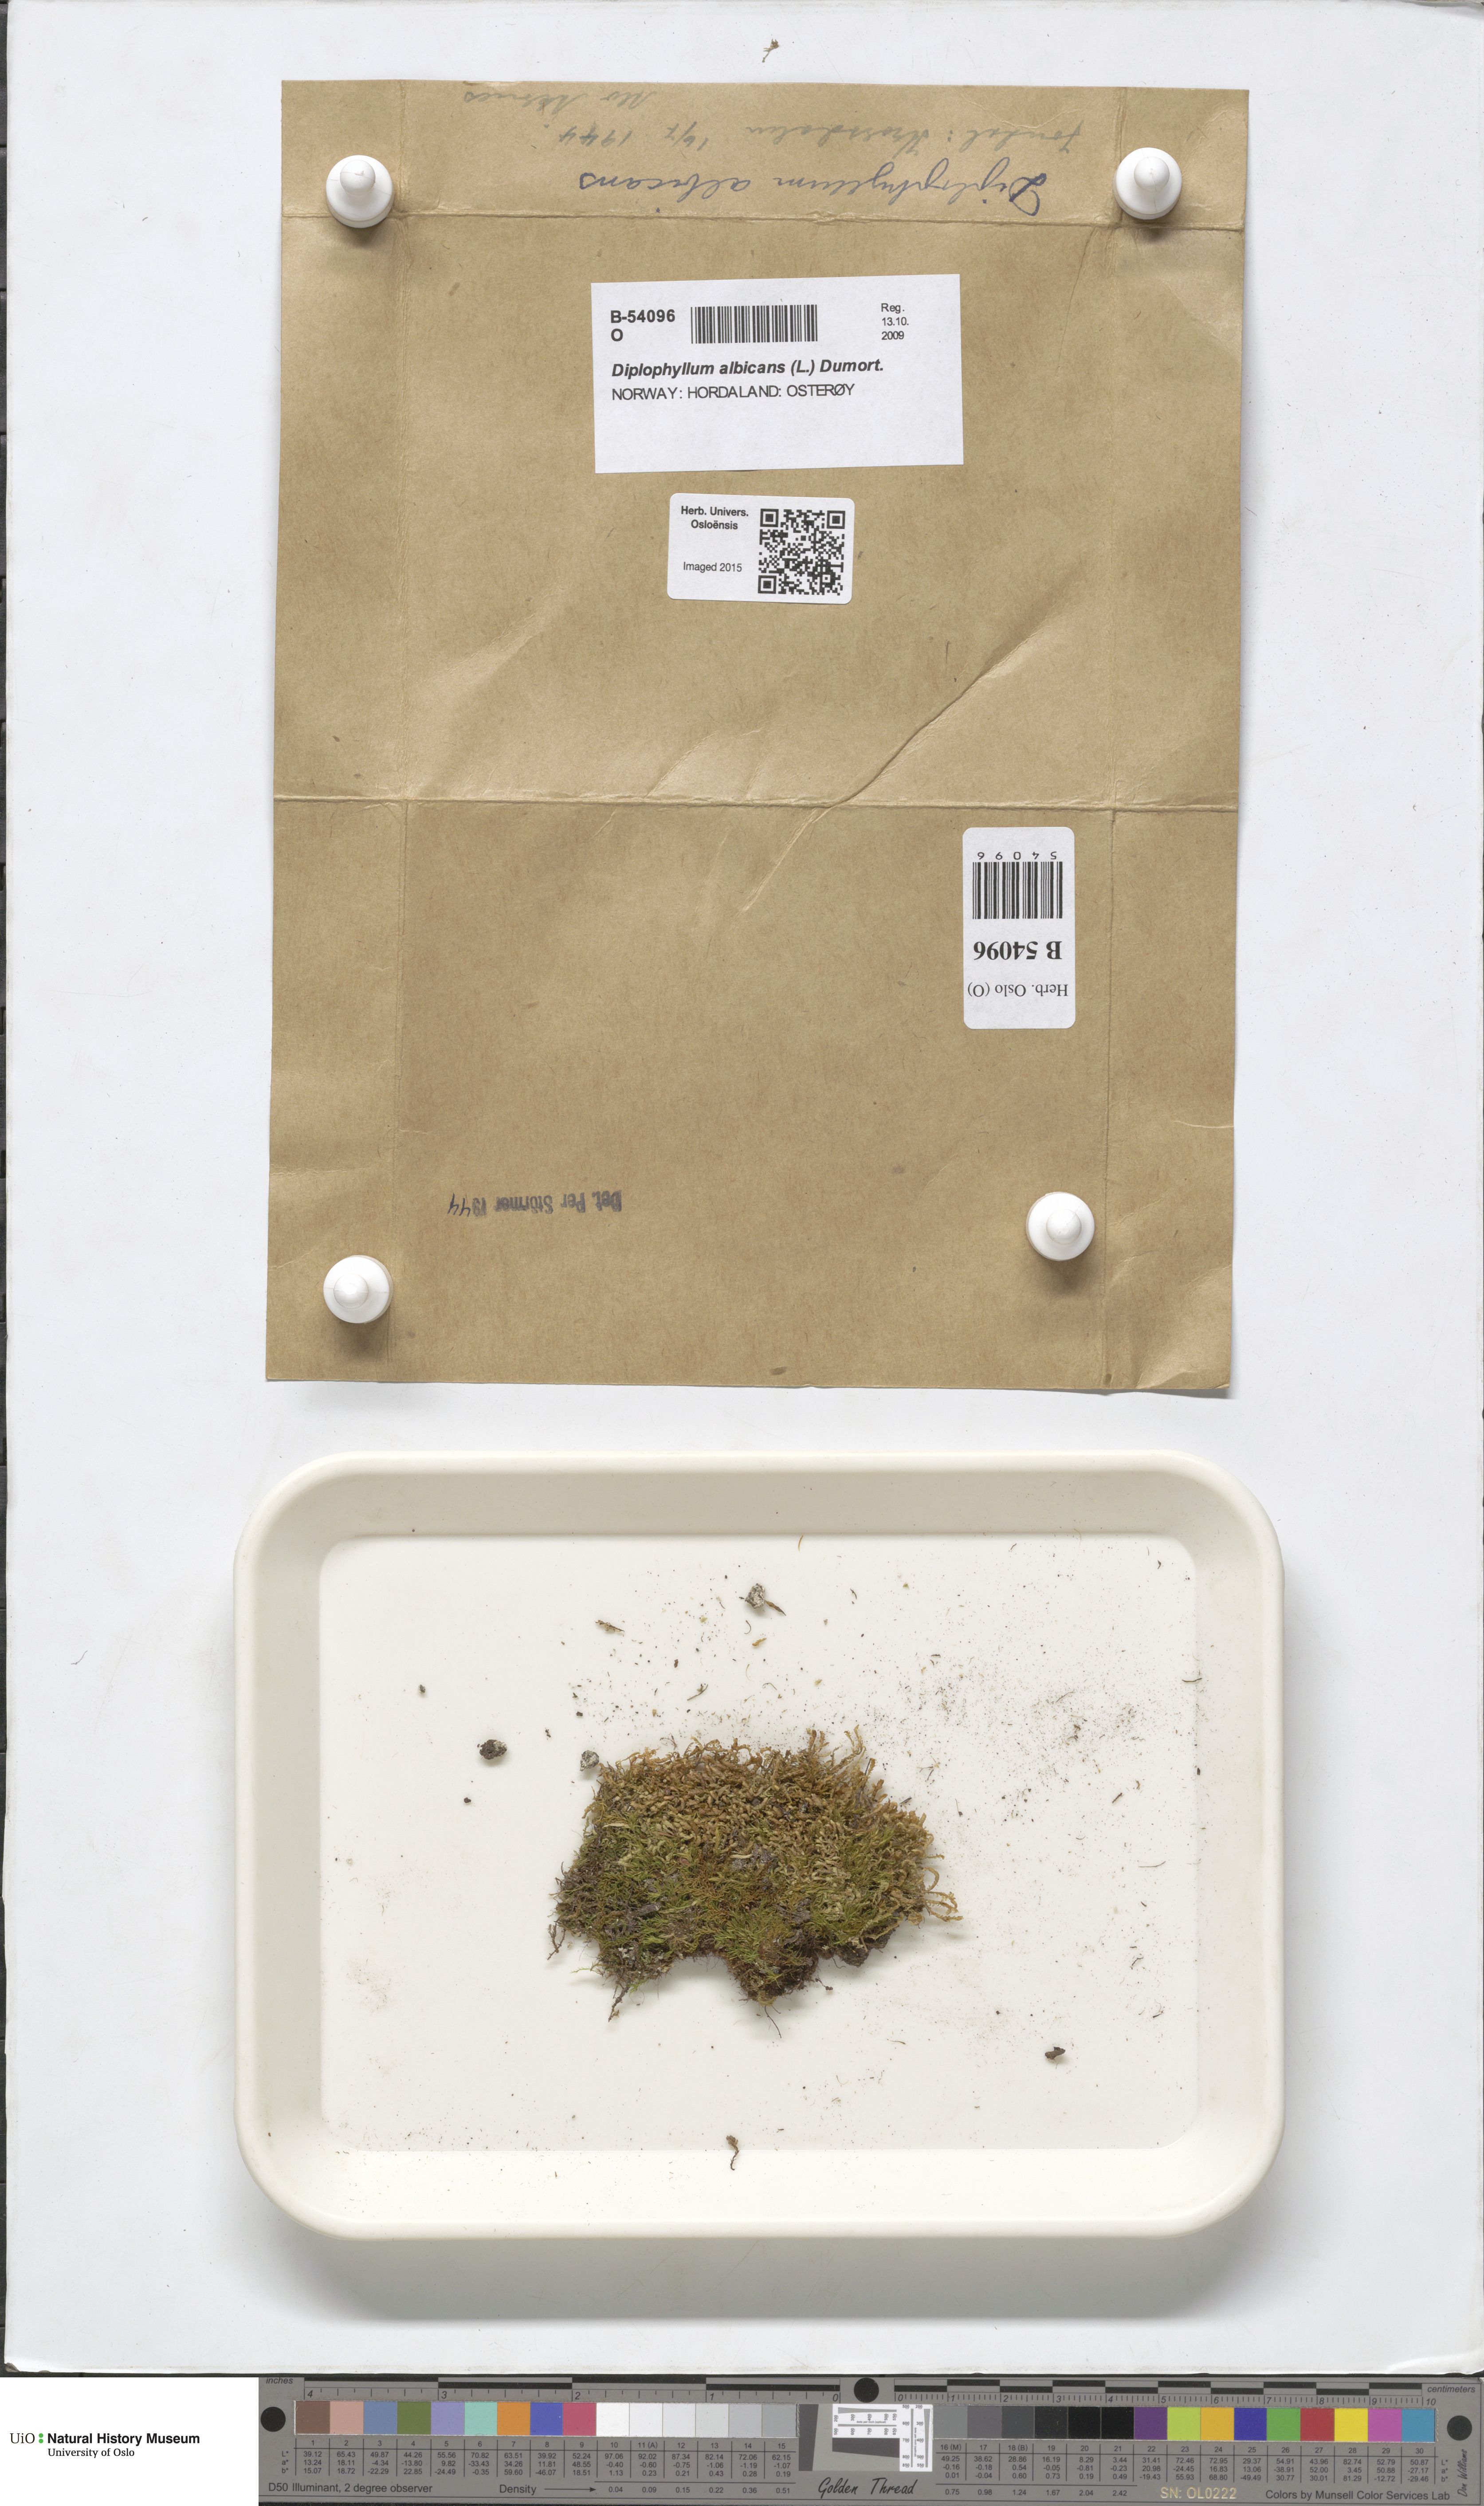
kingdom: Plantae
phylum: Marchantiophyta
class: Jungermanniopsida
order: Jungermanniales
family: Scapaniaceae
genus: Diplophyllum
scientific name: Diplophyllum albicans
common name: White earwort
